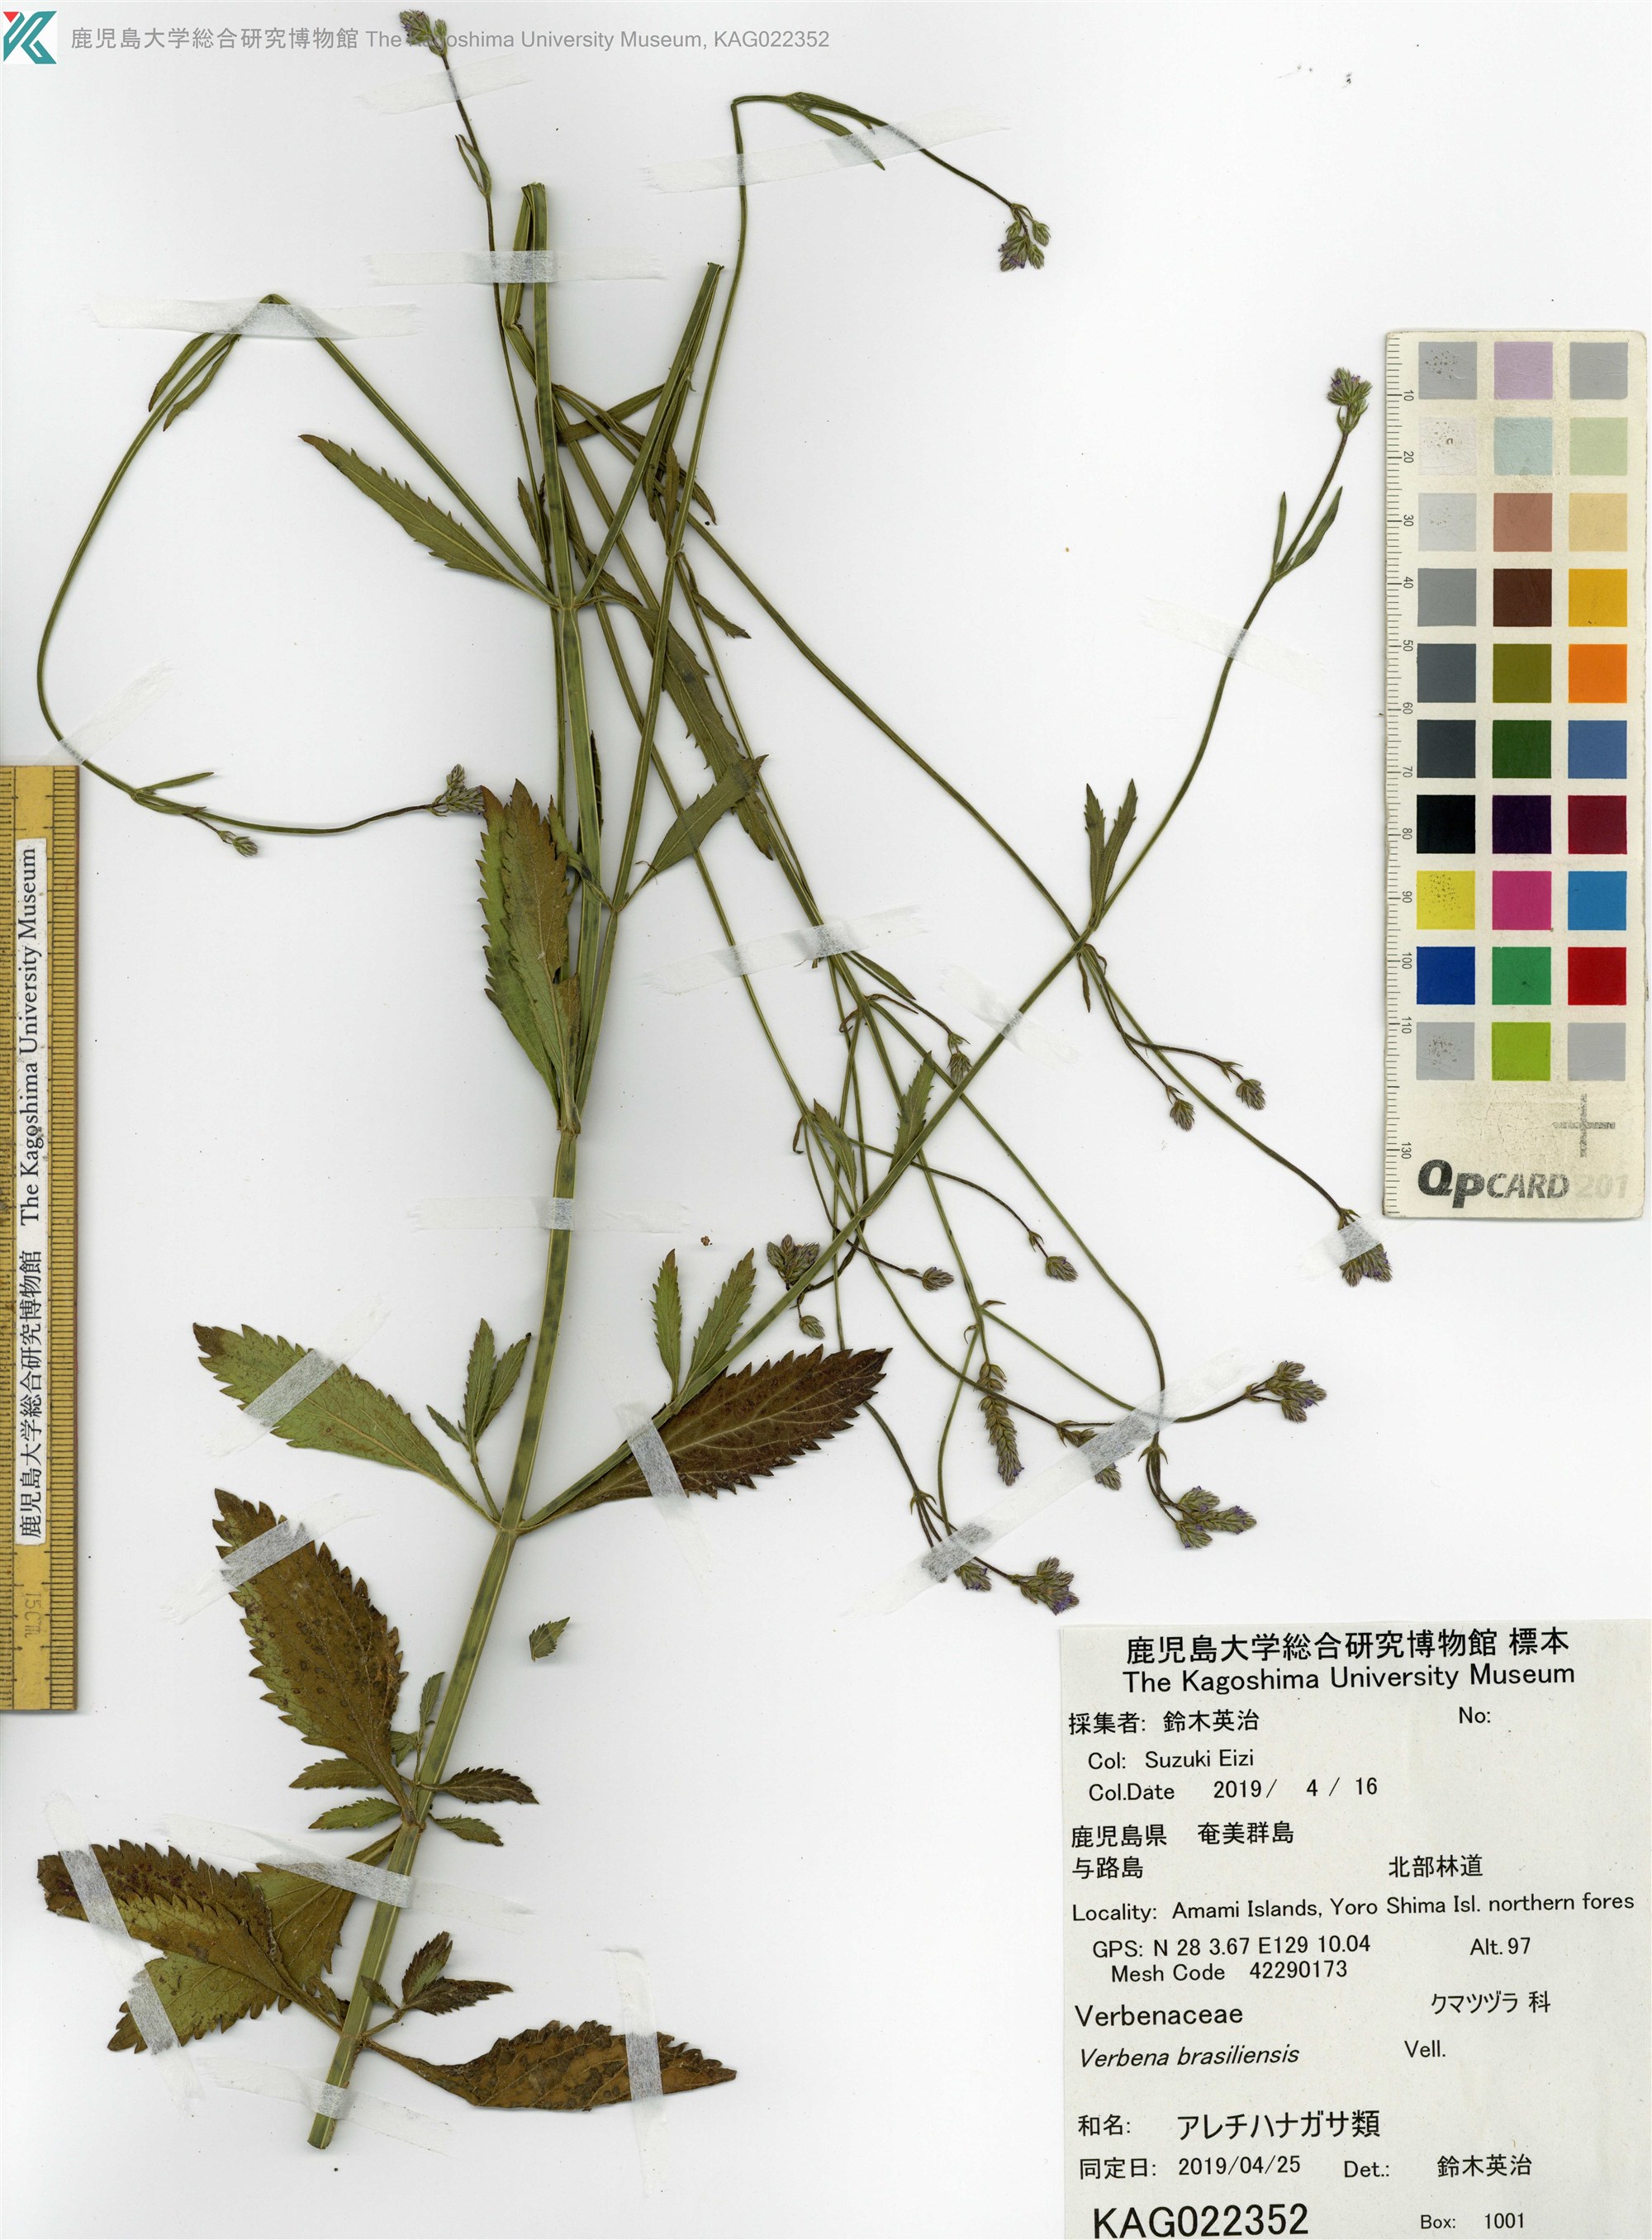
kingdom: Plantae
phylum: Tracheophyta
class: Magnoliopsida
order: Lamiales
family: Verbenaceae
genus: Verbena
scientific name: Verbena litoralis
